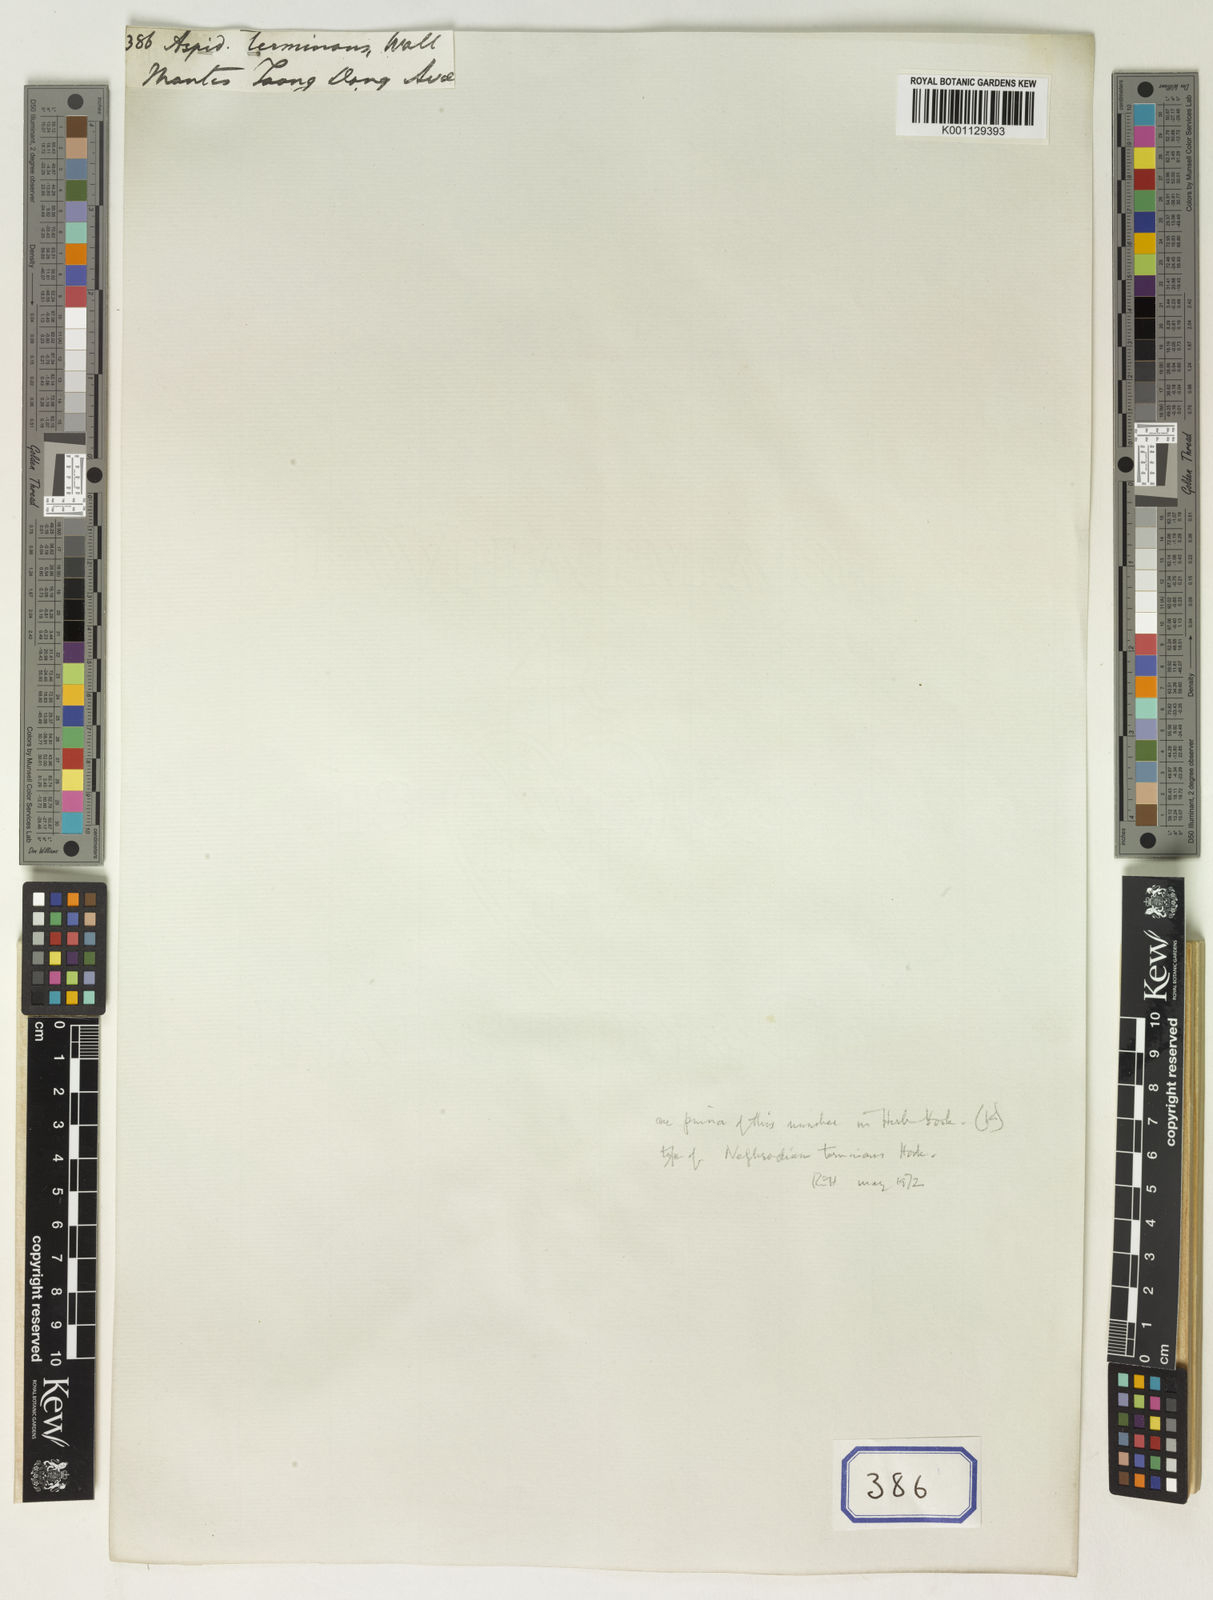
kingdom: Plantae
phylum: Tracheophyta
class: Polypodiopsida
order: Polypodiales
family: Thelypteridaceae
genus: Amblovenatum
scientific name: Amblovenatum terminans
